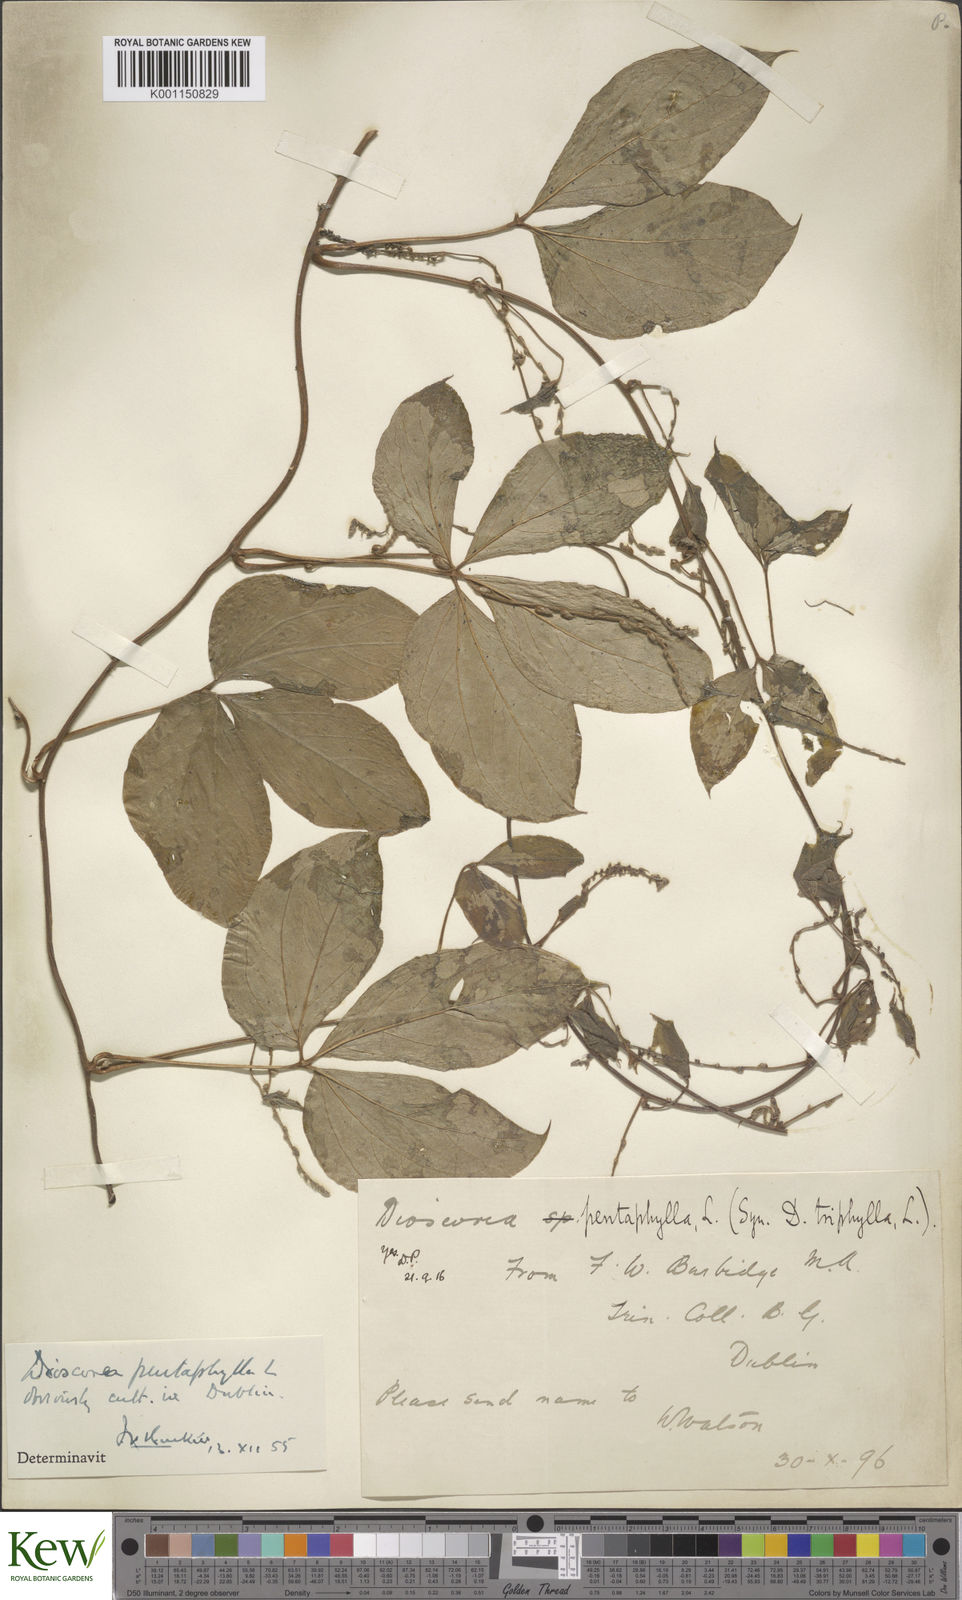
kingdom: Plantae
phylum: Tracheophyta
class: Liliopsida
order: Dioscoreales
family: Dioscoreaceae
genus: Dioscorea
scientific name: Dioscorea pentaphylla
